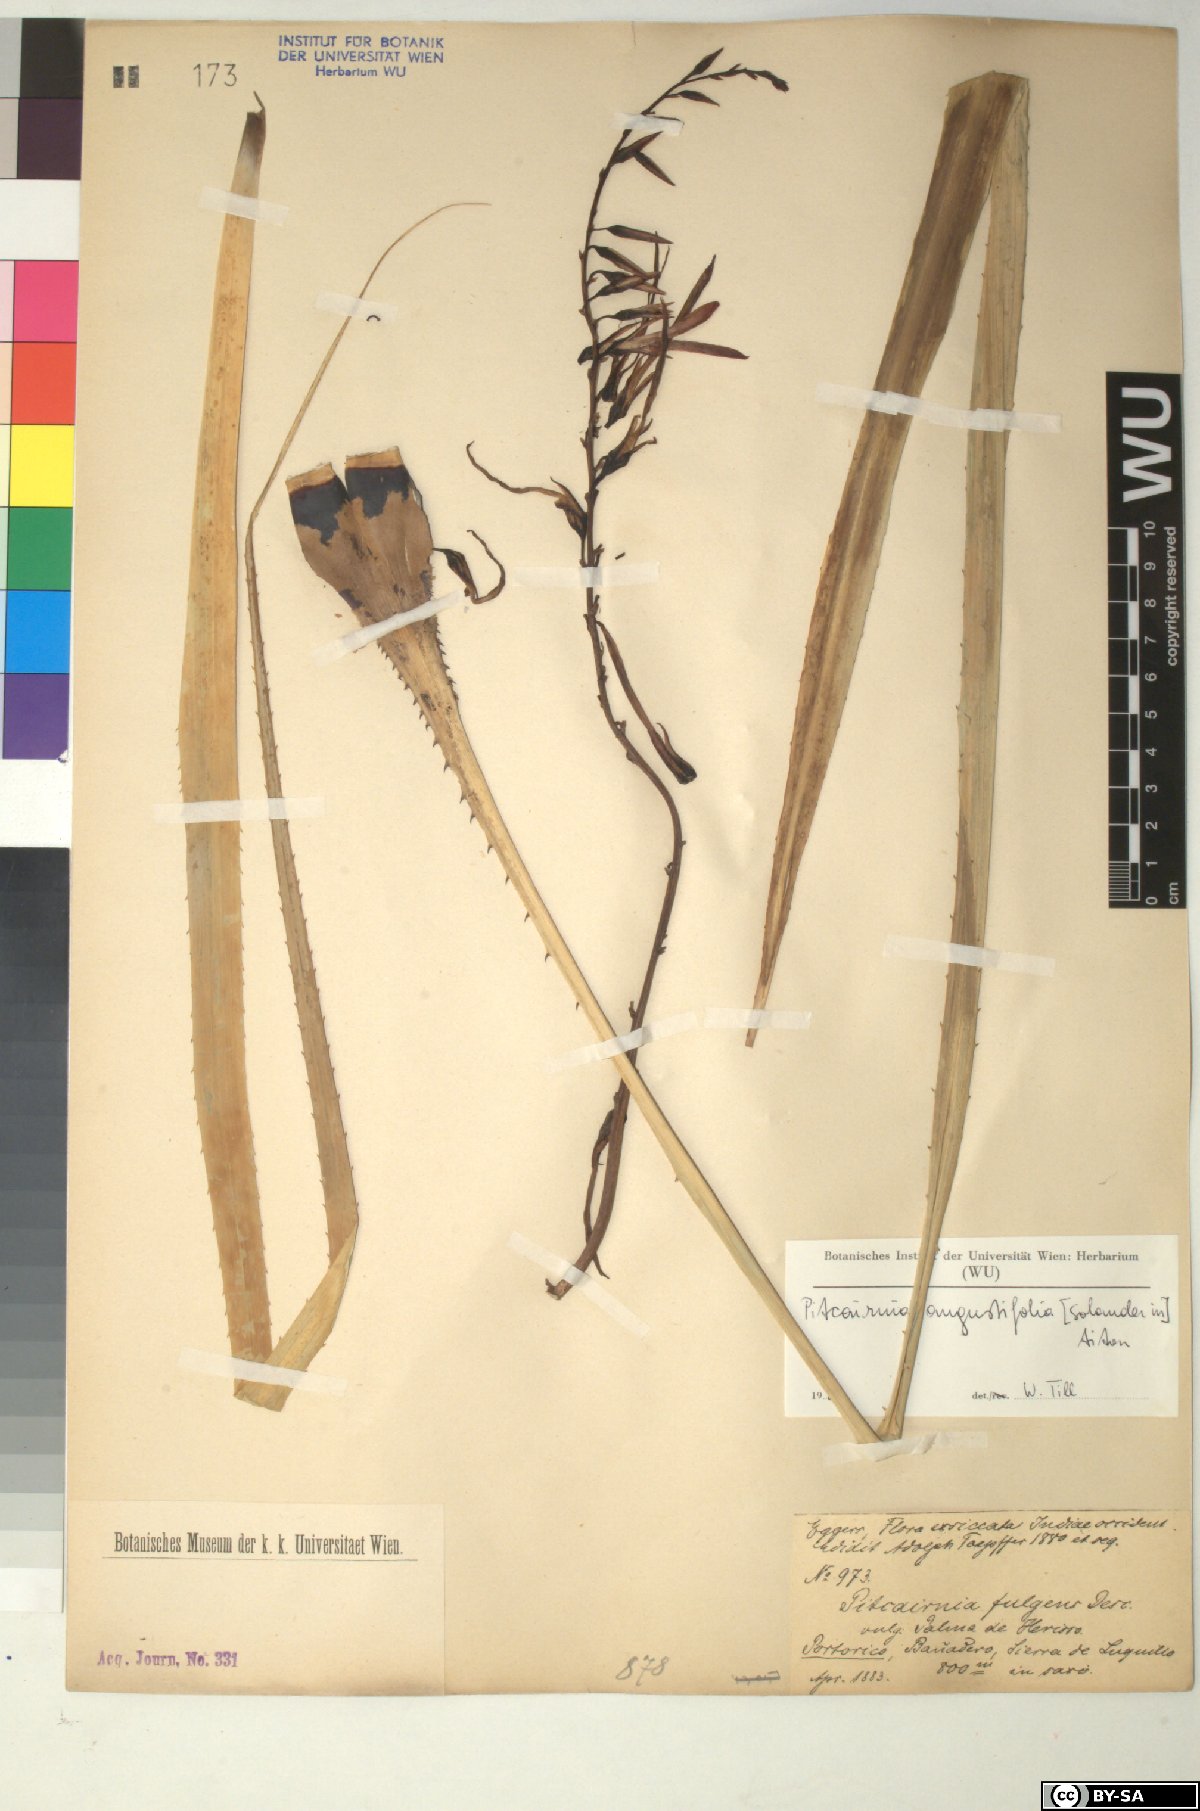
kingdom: Plantae
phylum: Tracheophyta
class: Liliopsida
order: Poales
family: Bromeliaceae
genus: Pitcairnia
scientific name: Pitcairnia angustifolia
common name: Clapper
